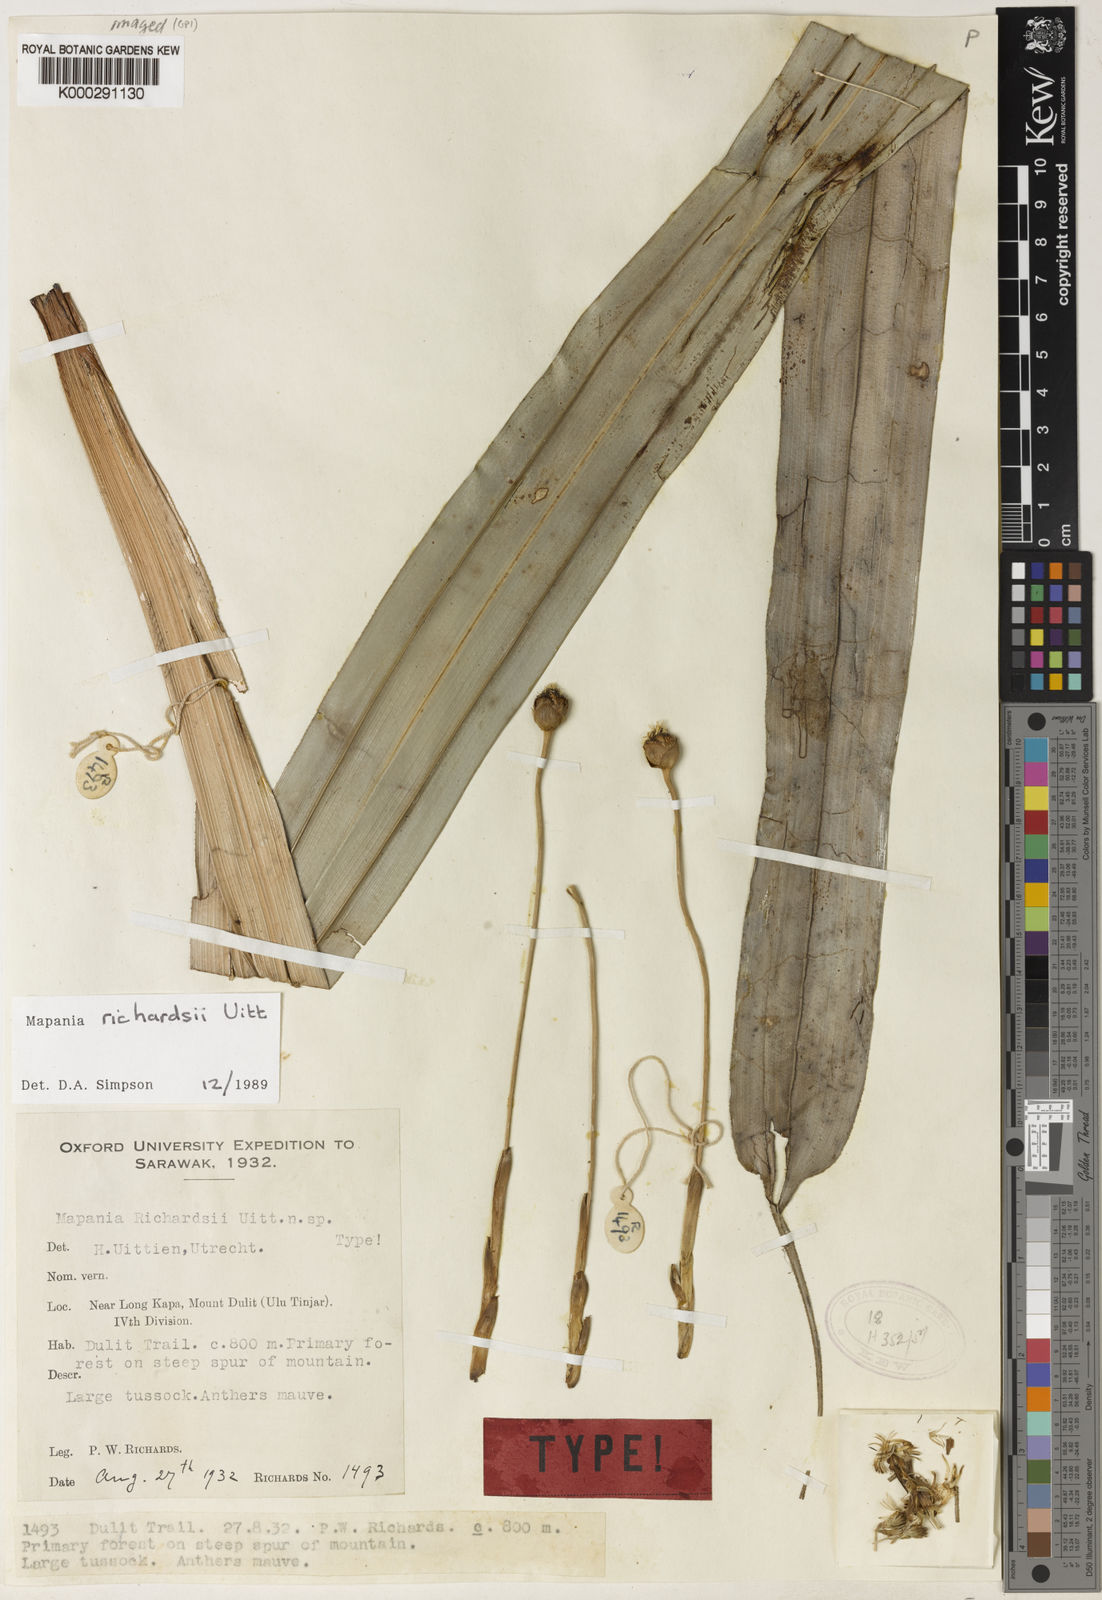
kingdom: Plantae
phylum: Tracheophyta
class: Liliopsida
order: Poales
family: Cyperaceae
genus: Mapania
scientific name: Mapania richardsii
